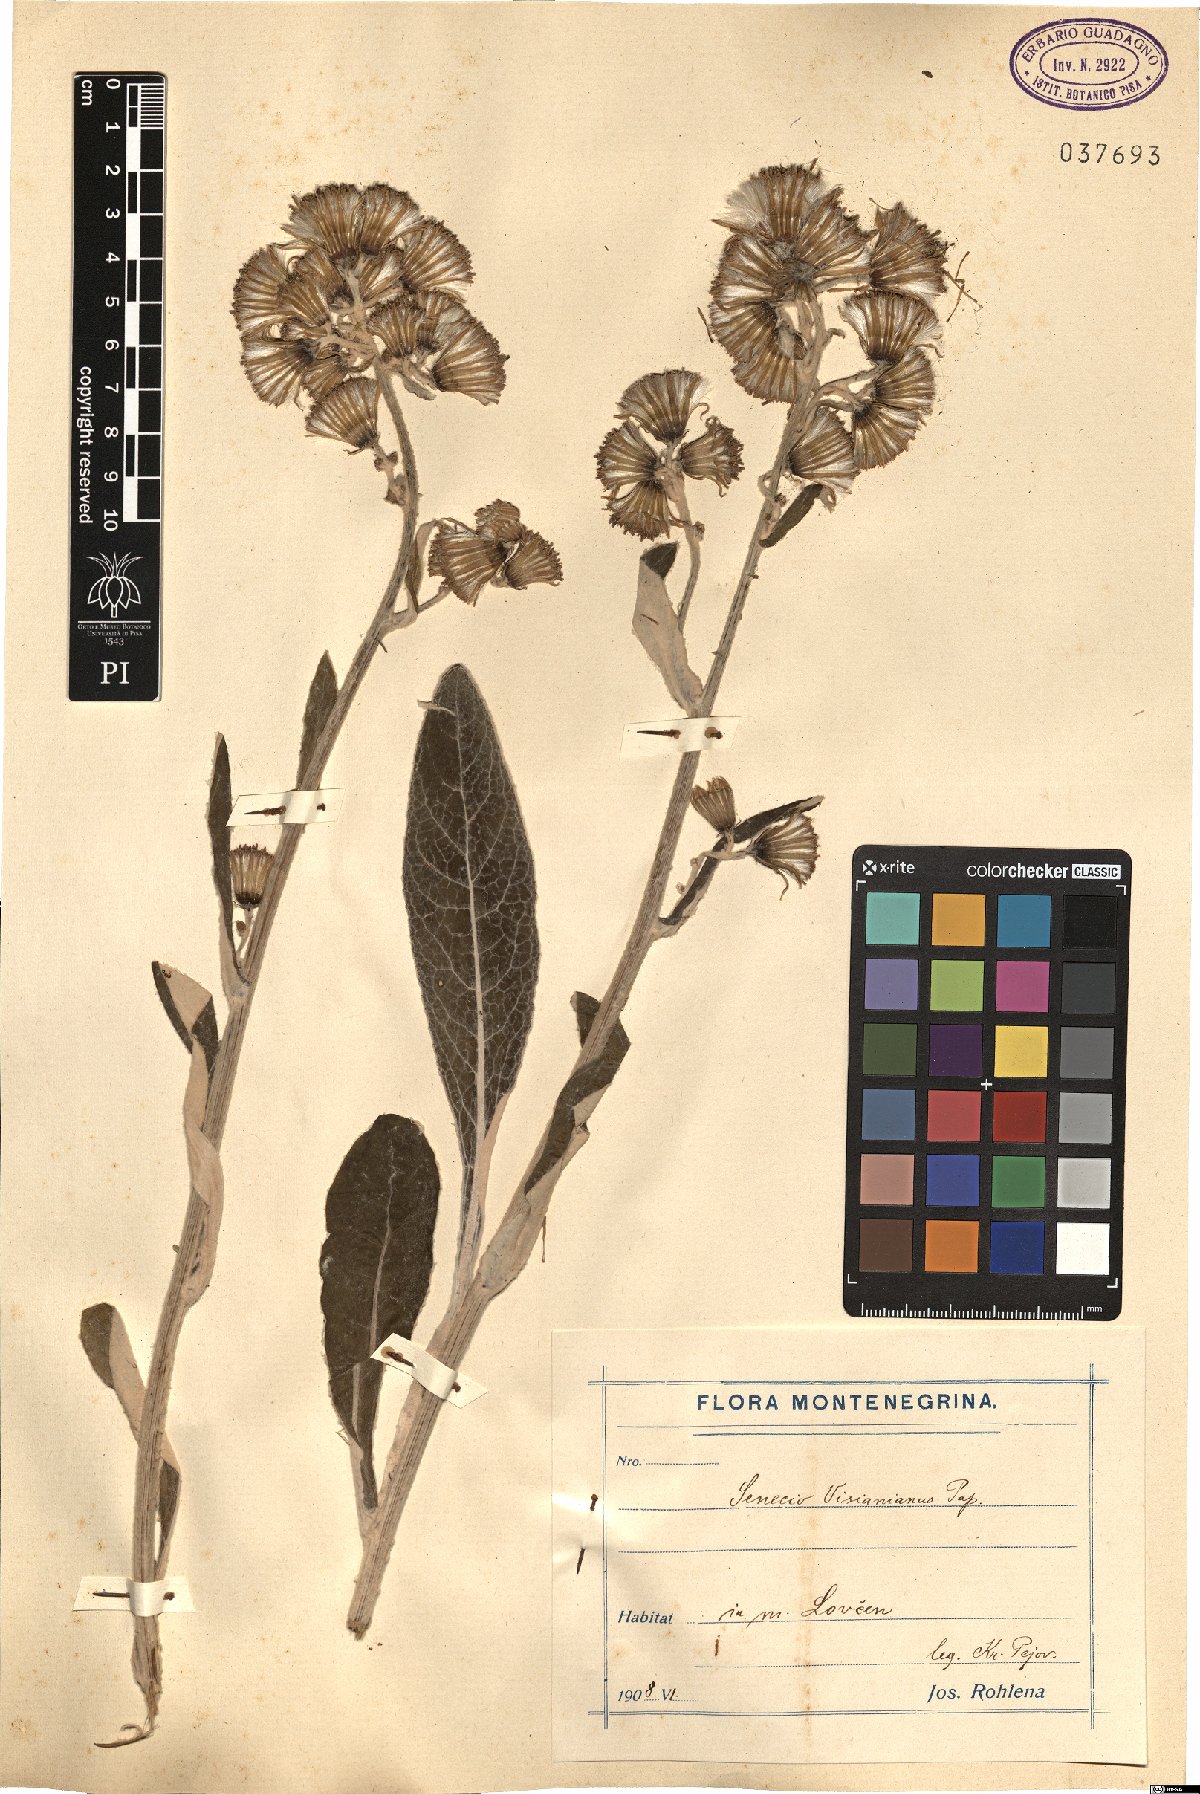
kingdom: Plantae
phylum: Tracheophyta
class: Magnoliopsida
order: Asterales
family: Asteraceae
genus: Senecio
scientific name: Senecio thapsoides
